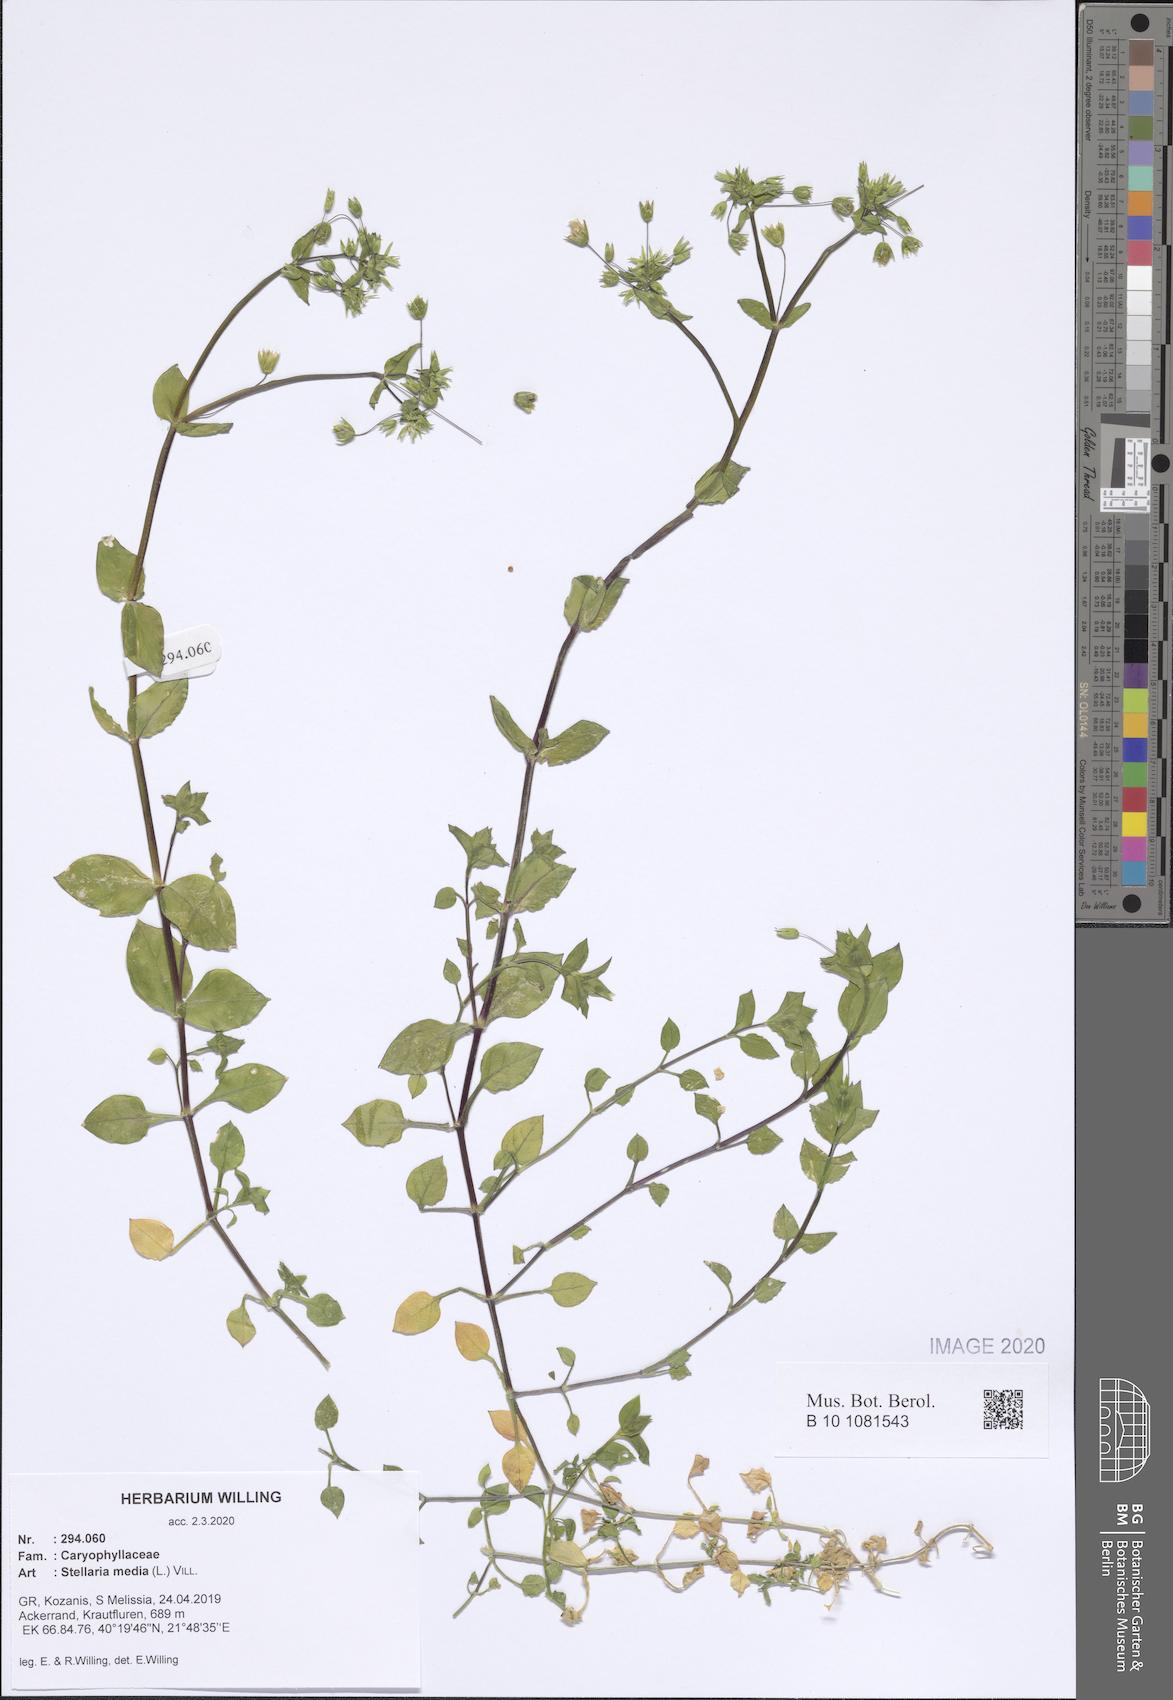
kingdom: Plantae
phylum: Tracheophyta
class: Magnoliopsida
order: Caryophyllales
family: Caryophyllaceae
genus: Stellaria
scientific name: Stellaria media
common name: Common chickweed
